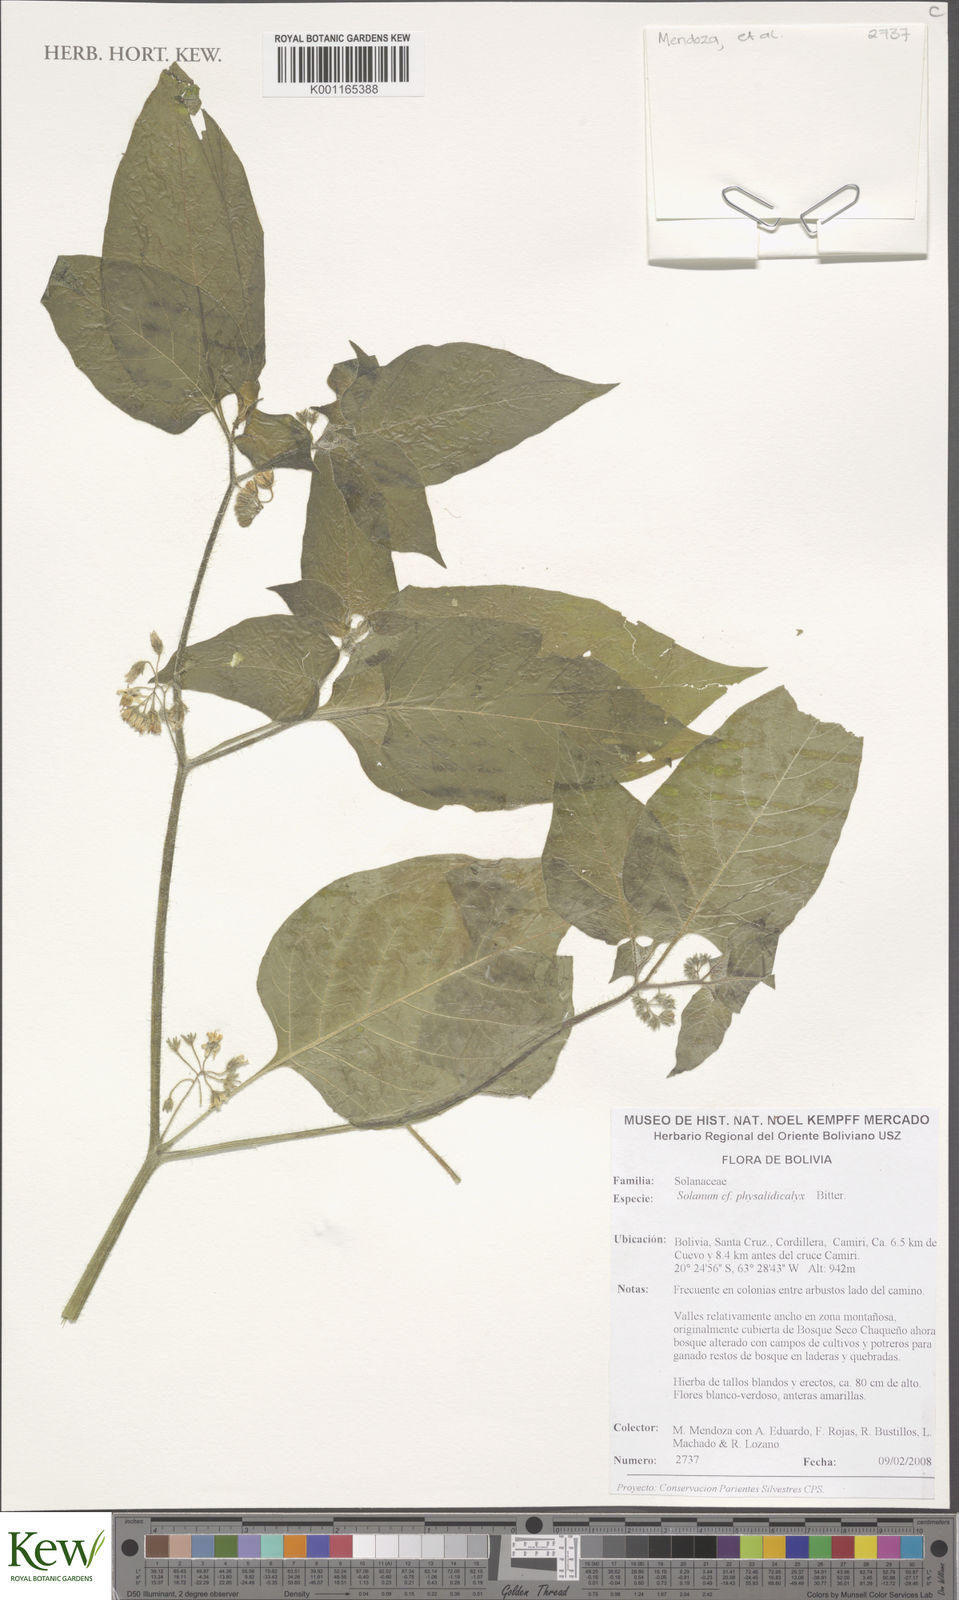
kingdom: Plantae
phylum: Tracheophyta
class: Magnoliopsida
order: Solanales
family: Solanaceae
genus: Solanum
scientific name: Solanum physalidicalyx
